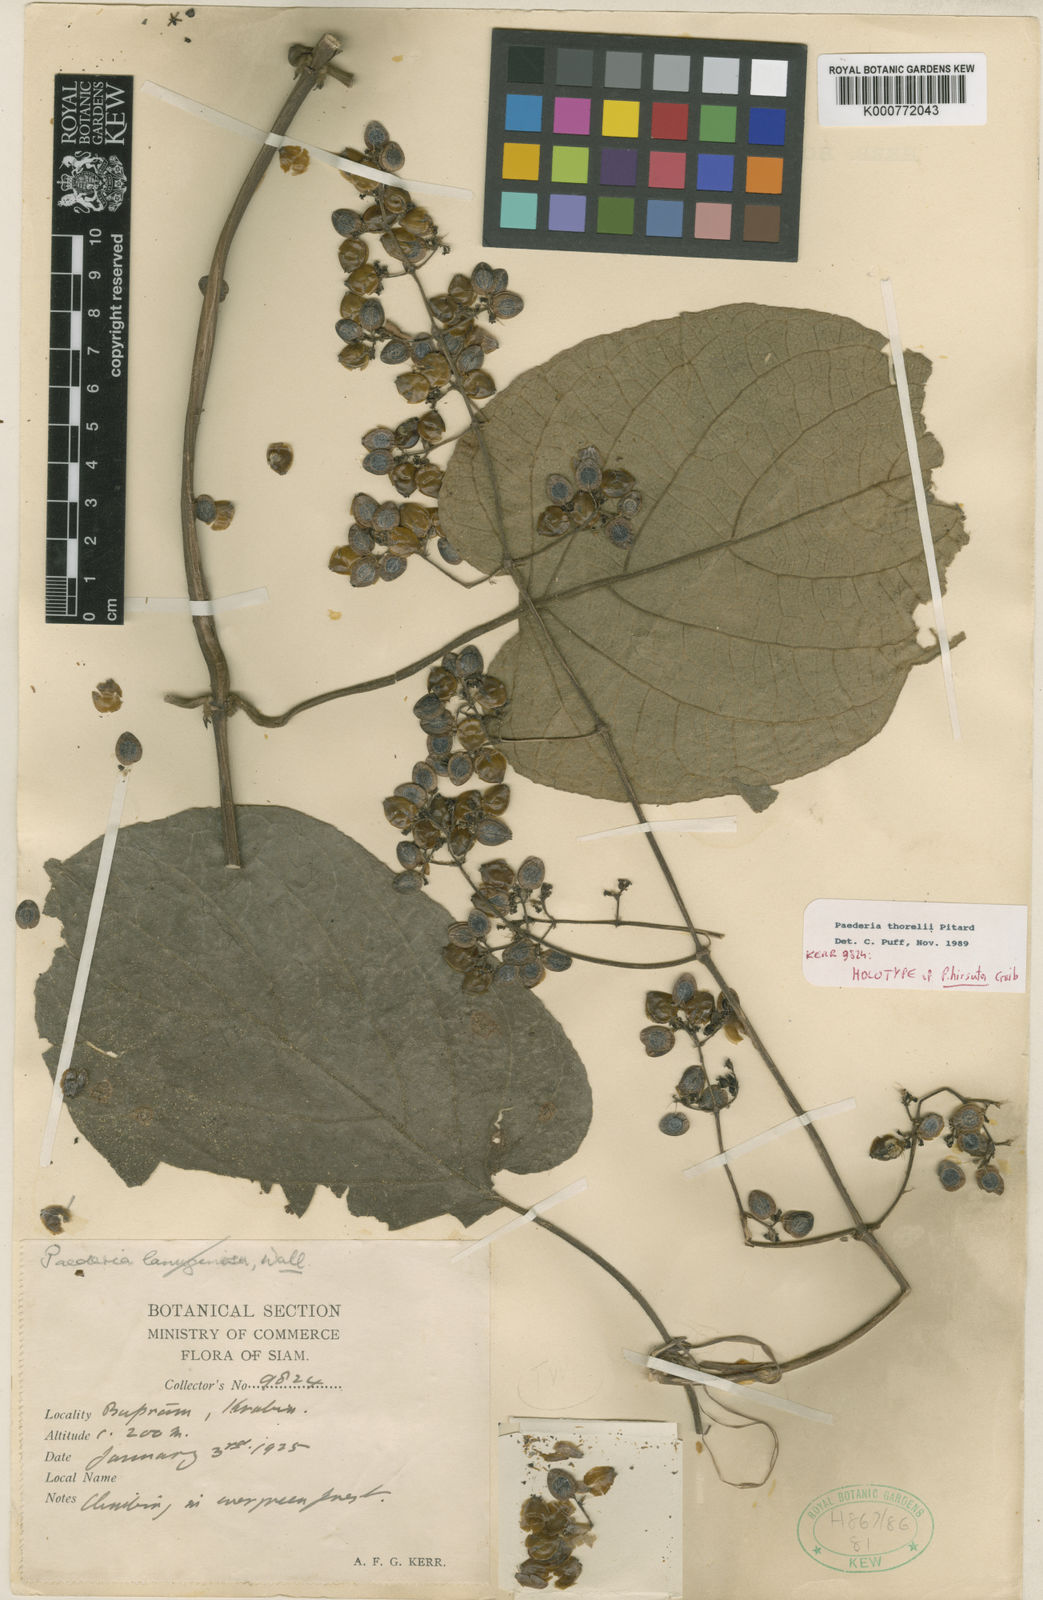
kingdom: Plantae
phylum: Tracheophyta
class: Magnoliopsida
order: Gentianales
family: Rubiaceae
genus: Paederia
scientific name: Paederia thorelii
